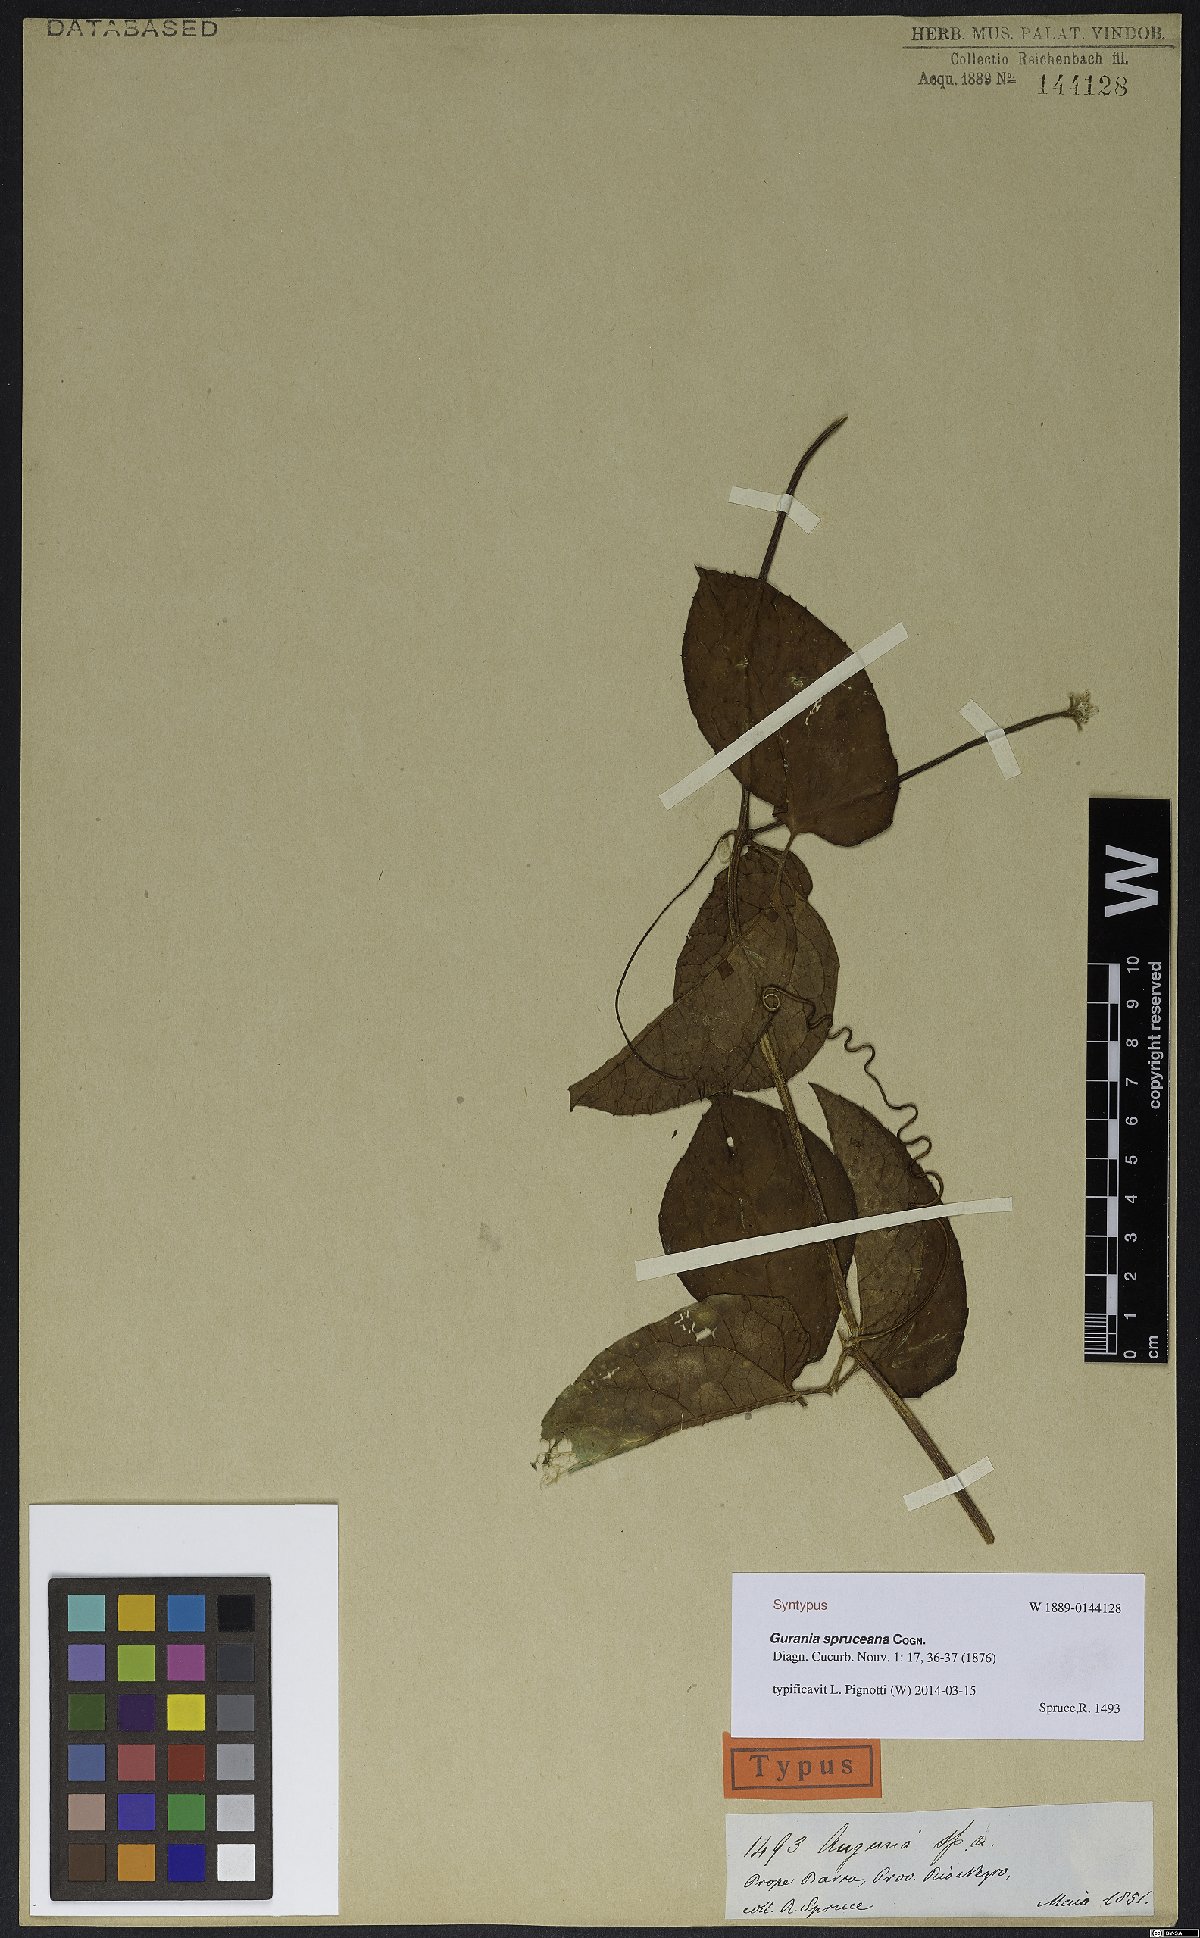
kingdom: Plantae
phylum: Tracheophyta
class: Magnoliopsida
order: Cucurbitales
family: Cucurbitaceae
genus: Gurania
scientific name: Gurania spruceana
